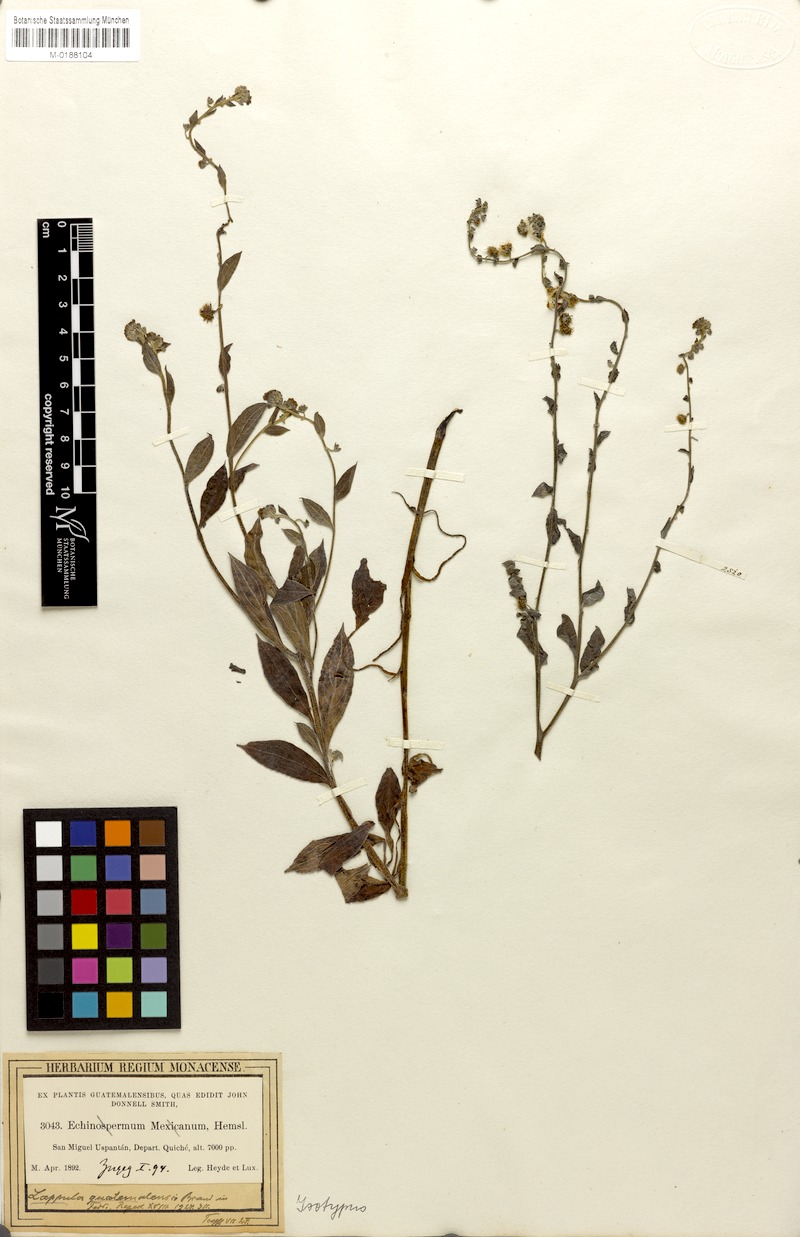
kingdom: Plantae
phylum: Tracheophyta
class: Magnoliopsida
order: Boraginales
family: Boraginaceae
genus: Hackelia
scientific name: Hackelia mexicana
